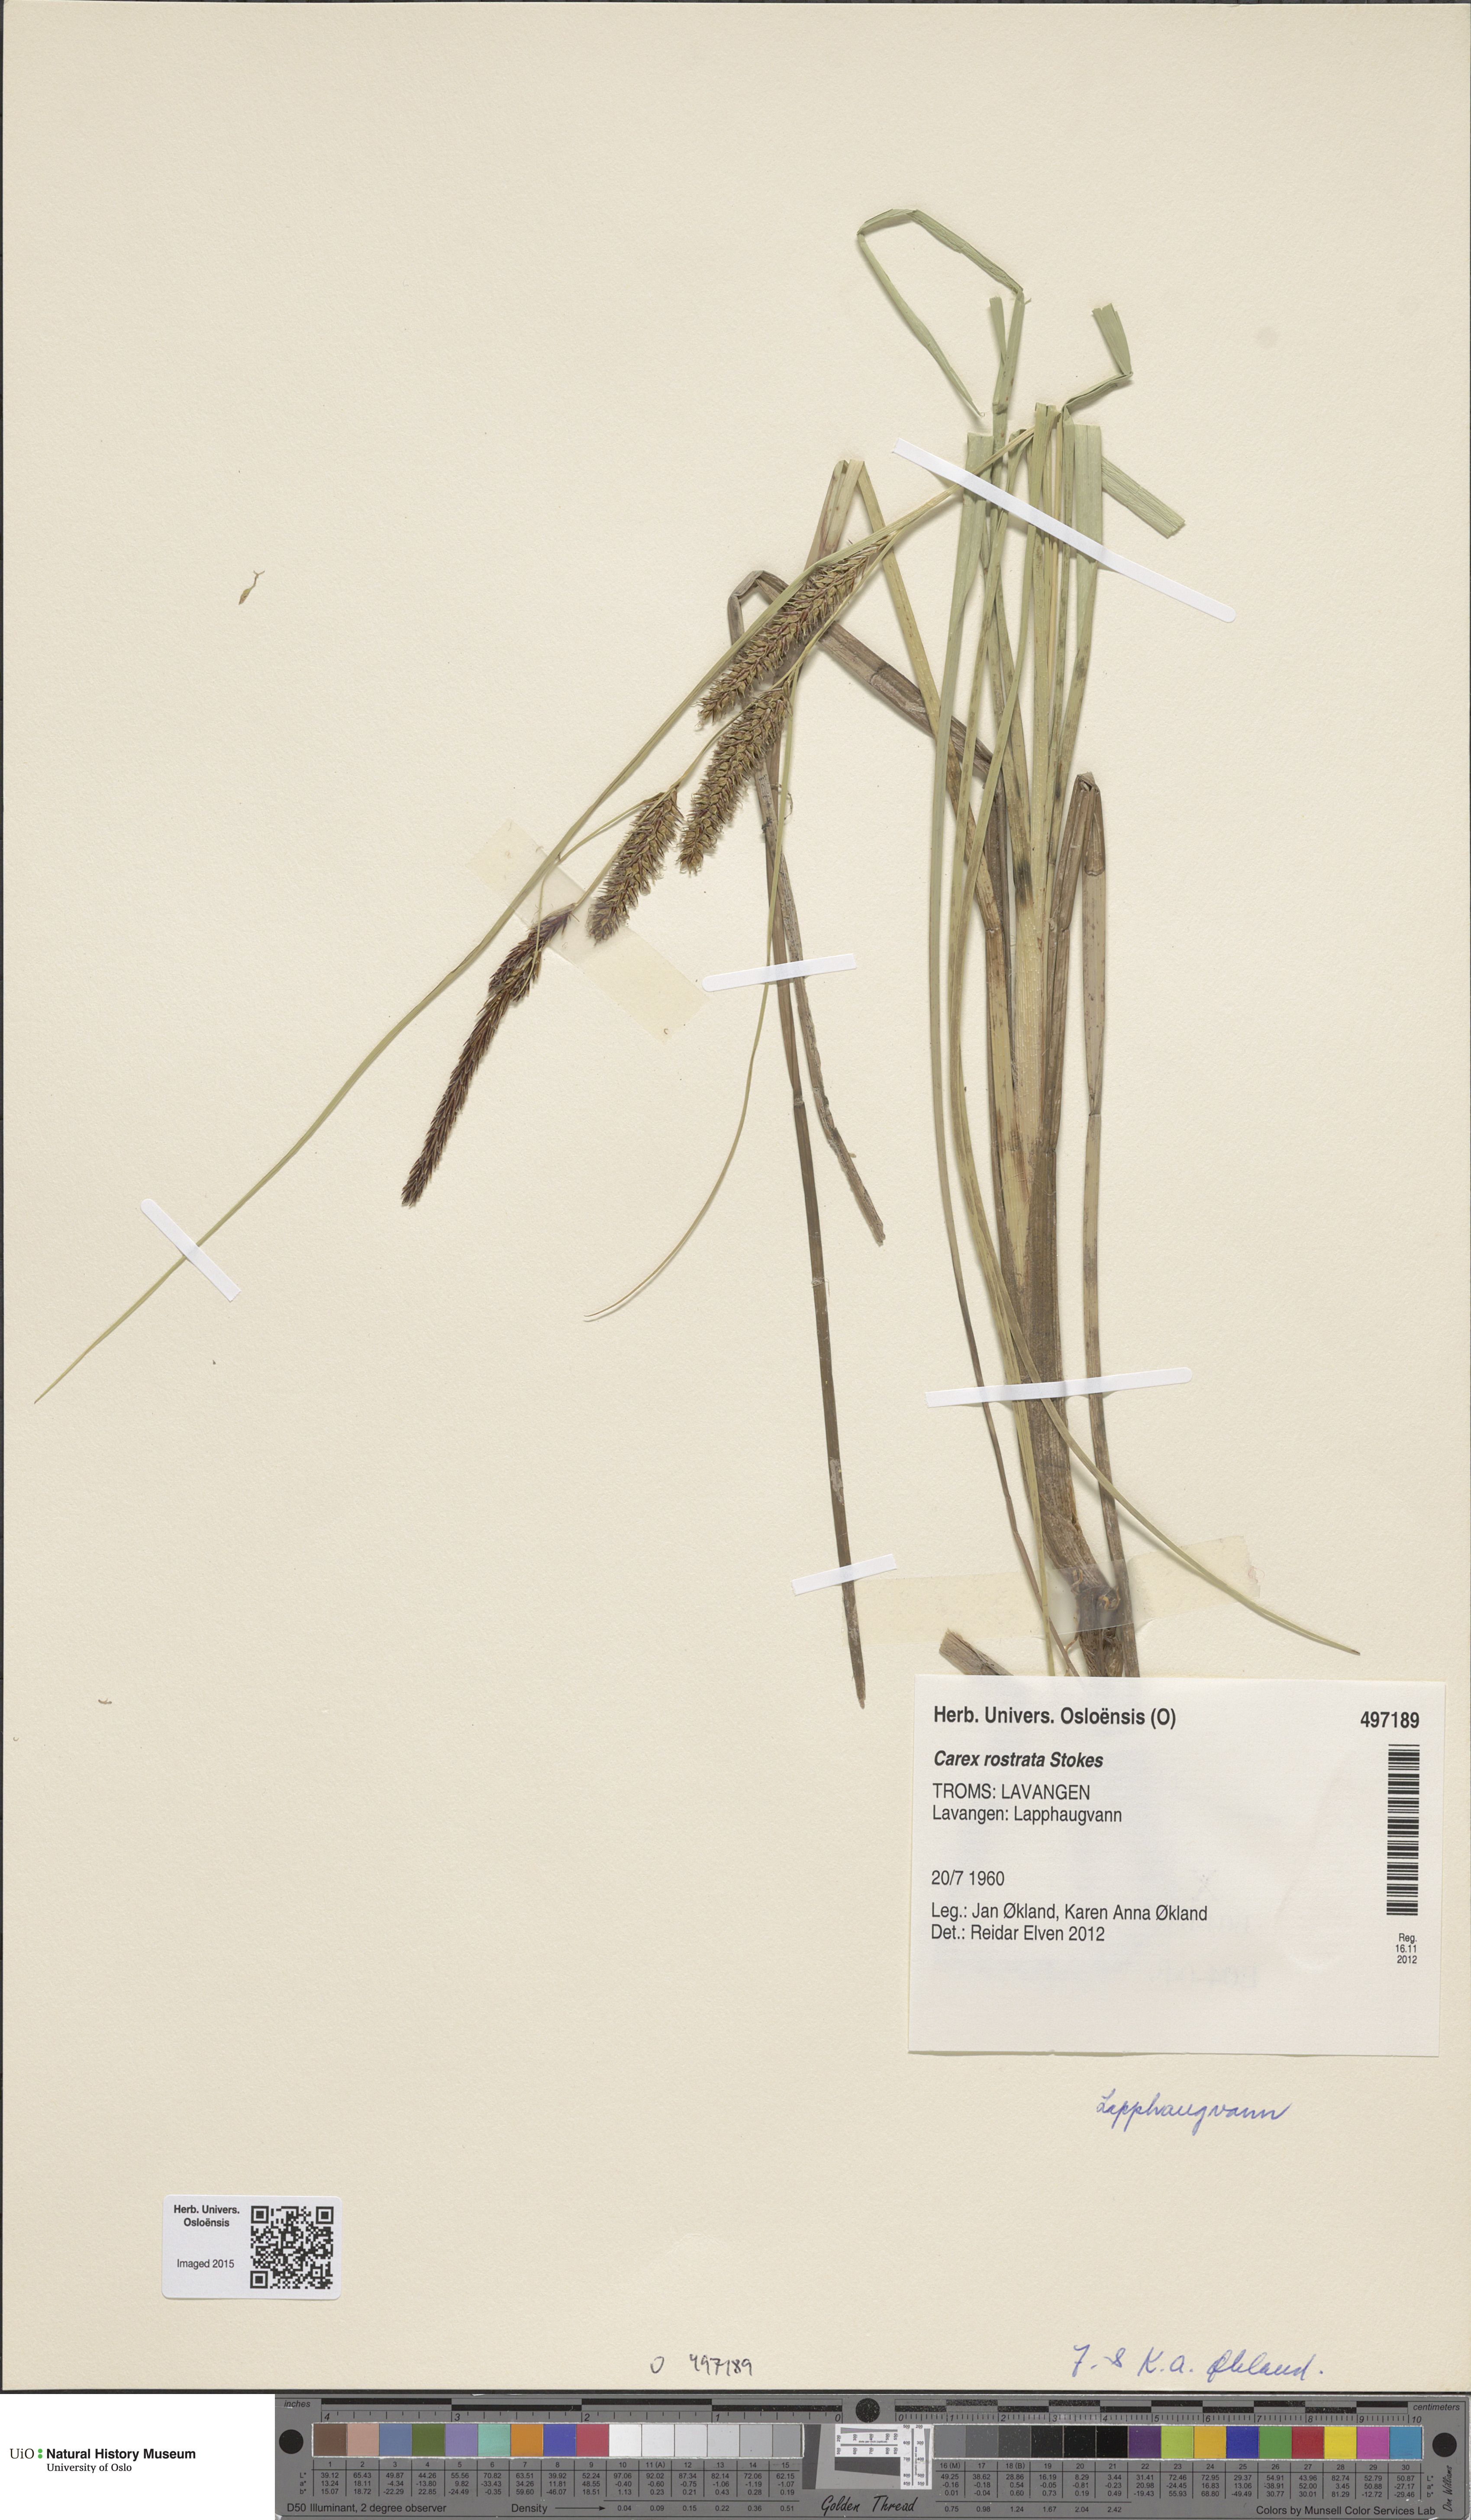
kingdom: Plantae
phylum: Tracheophyta
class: Liliopsida
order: Poales
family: Cyperaceae
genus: Carex
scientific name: Carex rostrata
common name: Bottle sedge
